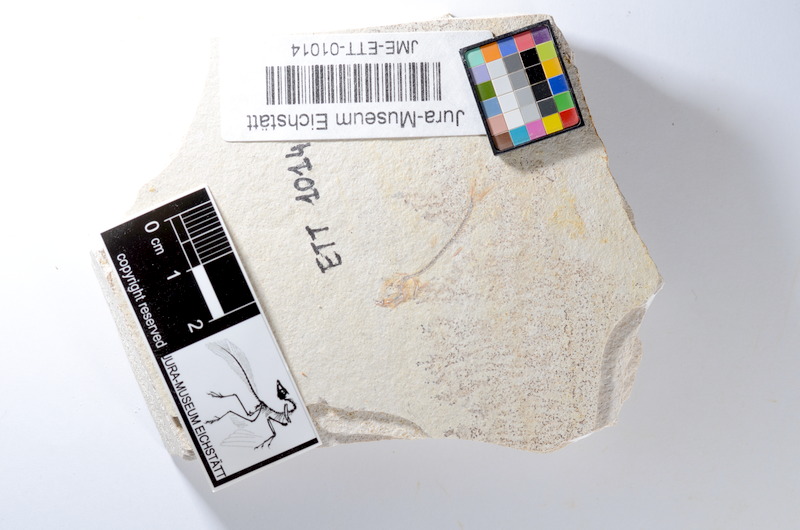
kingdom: Animalia
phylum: Chordata
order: Salmoniformes
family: Orthogonikleithridae
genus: Orthogonikleithrus
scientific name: Orthogonikleithrus hoelli
